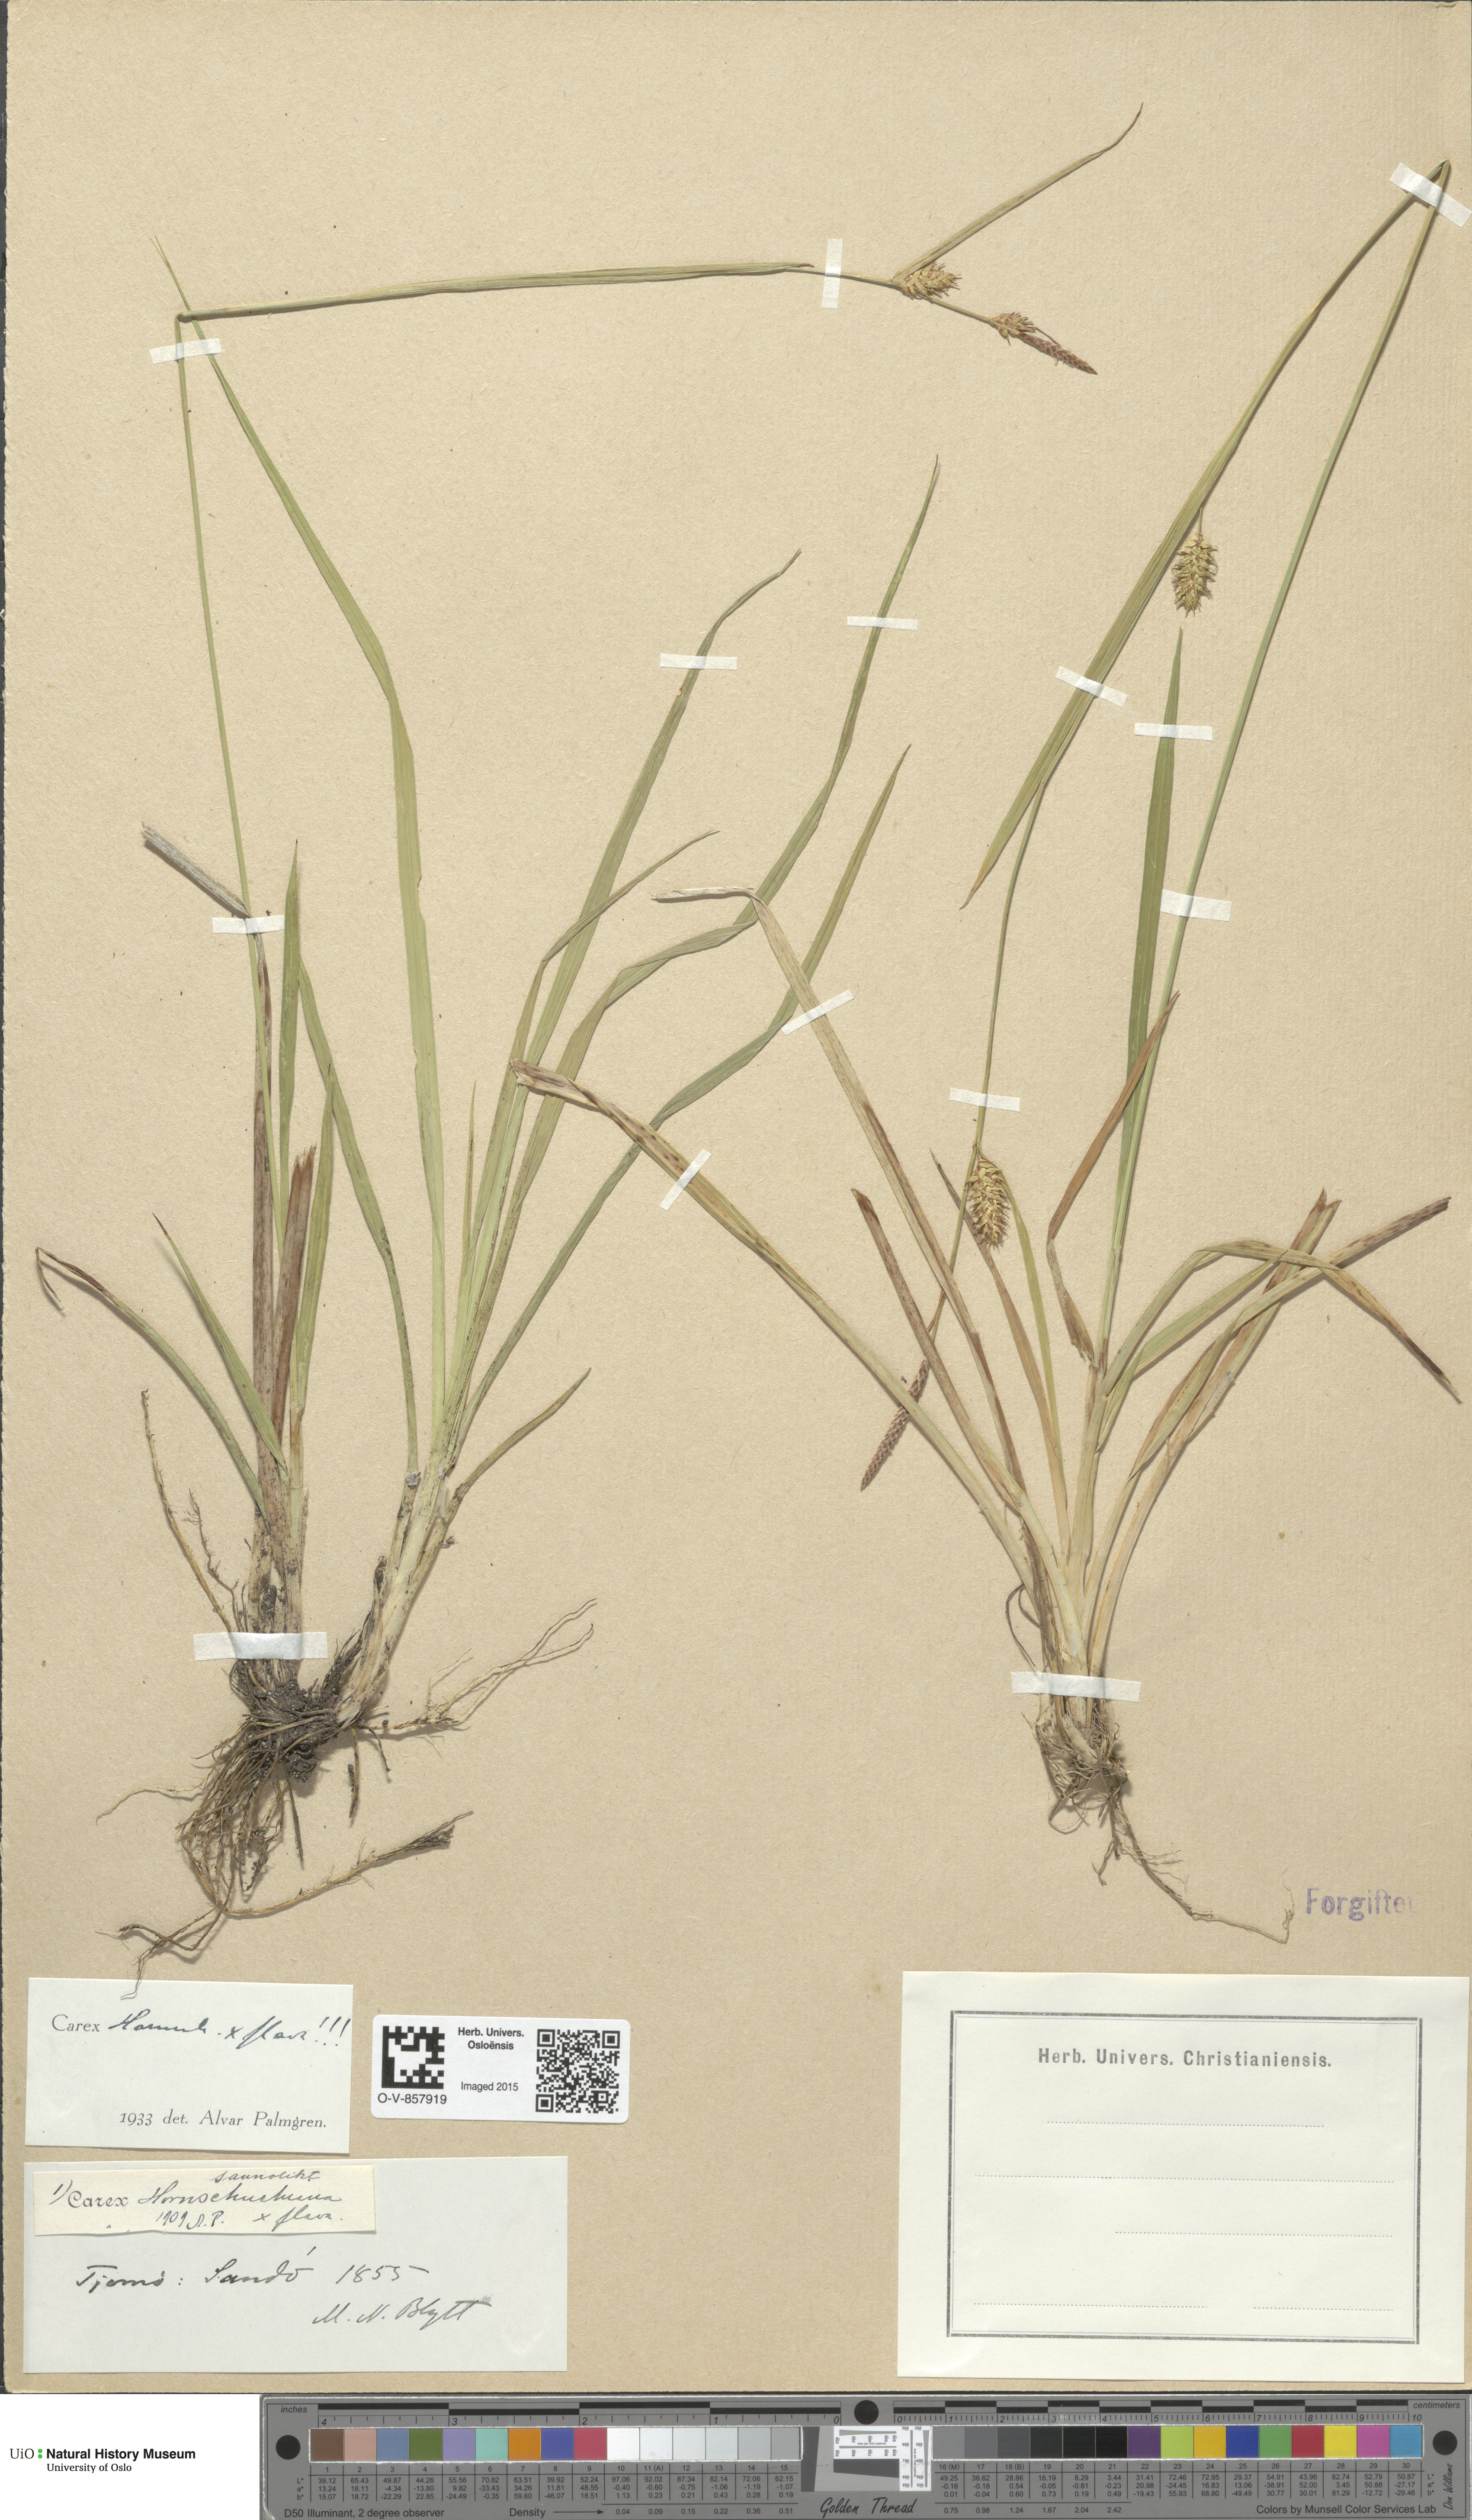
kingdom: Plantae
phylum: Tracheophyta
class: Liliopsida
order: Poales
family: Cyperaceae
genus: Carex
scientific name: Carex
